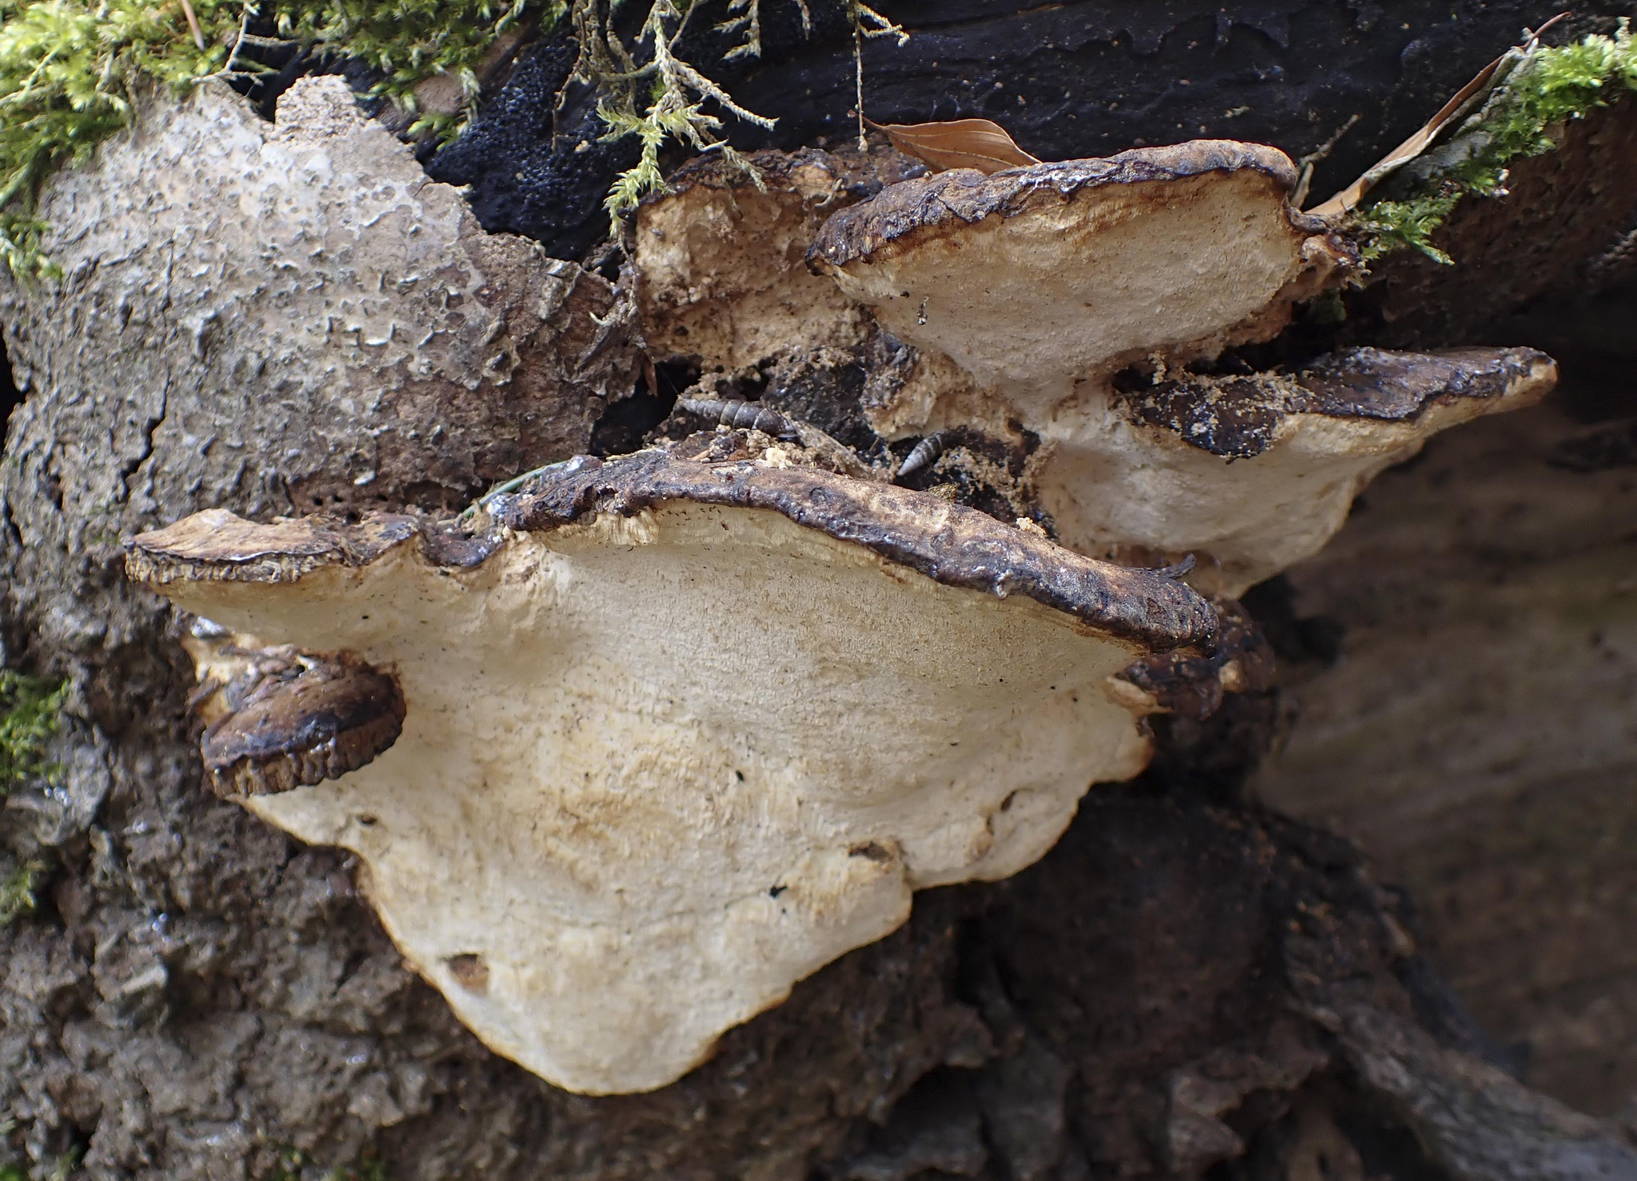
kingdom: Fungi
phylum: Basidiomycota
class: Agaricomycetes
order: Polyporales
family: Ischnodermataceae
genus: Ischnoderma
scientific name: Ischnoderma resinosum
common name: løv-tjæreporesvamp
